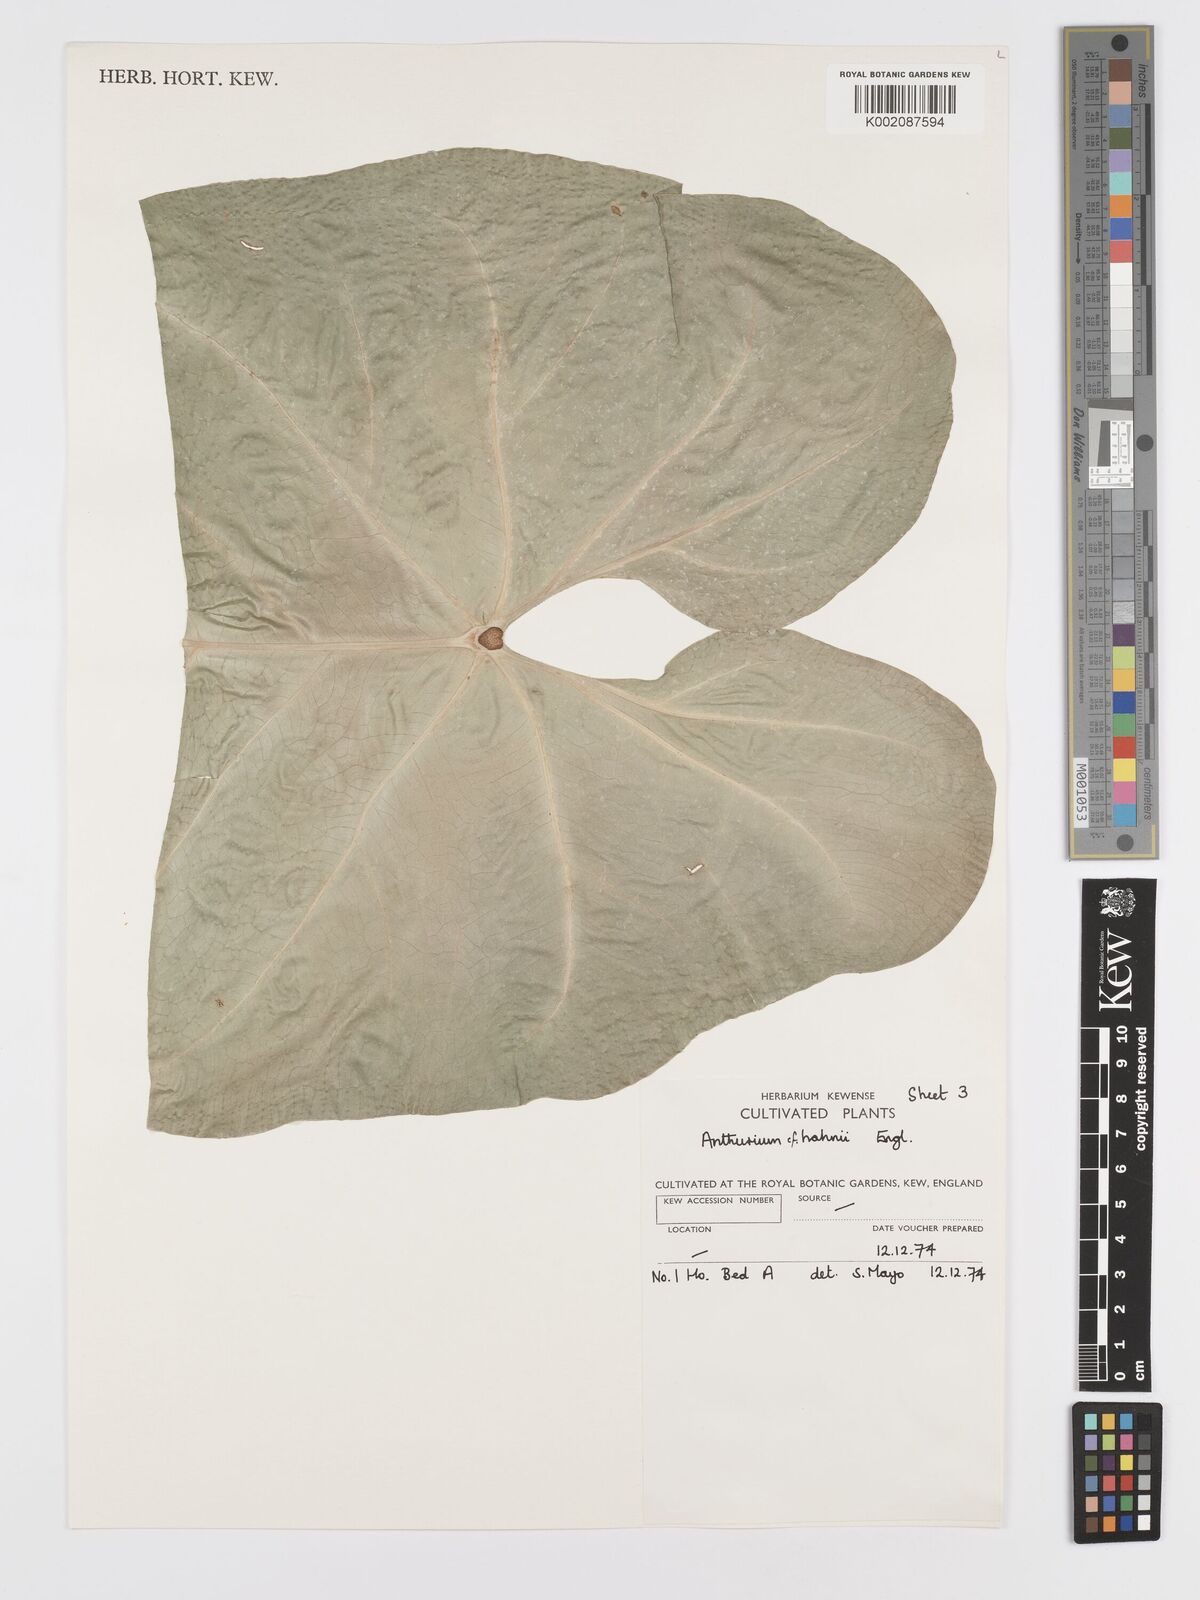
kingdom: Plantae
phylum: Tracheophyta
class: Liliopsida
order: Alismatales
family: Araceae
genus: Anthurium
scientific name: Anthurium grandifolium
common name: Monkey tail
